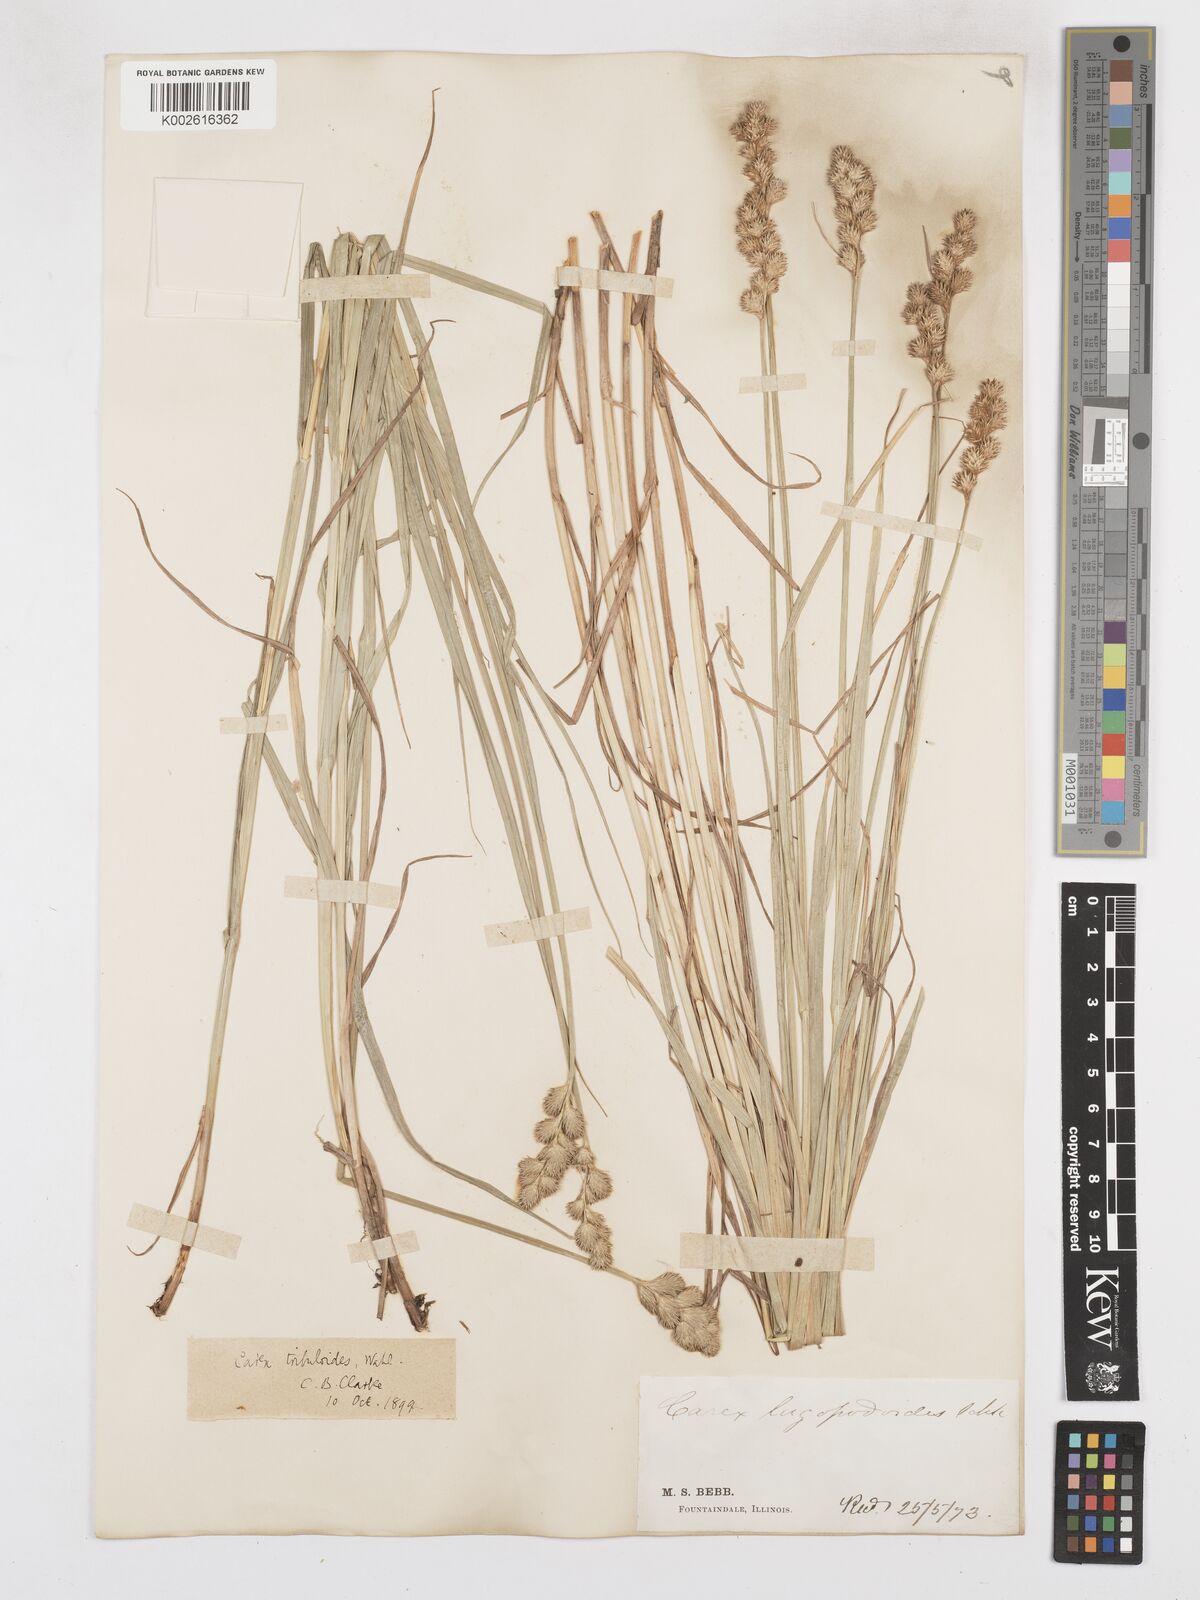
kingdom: Plantae
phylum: Tracheophyta
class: Liliopsida
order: Poales
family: Cyperaceae
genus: Carex
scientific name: Carex tribuloides
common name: Blunt broom sedge
